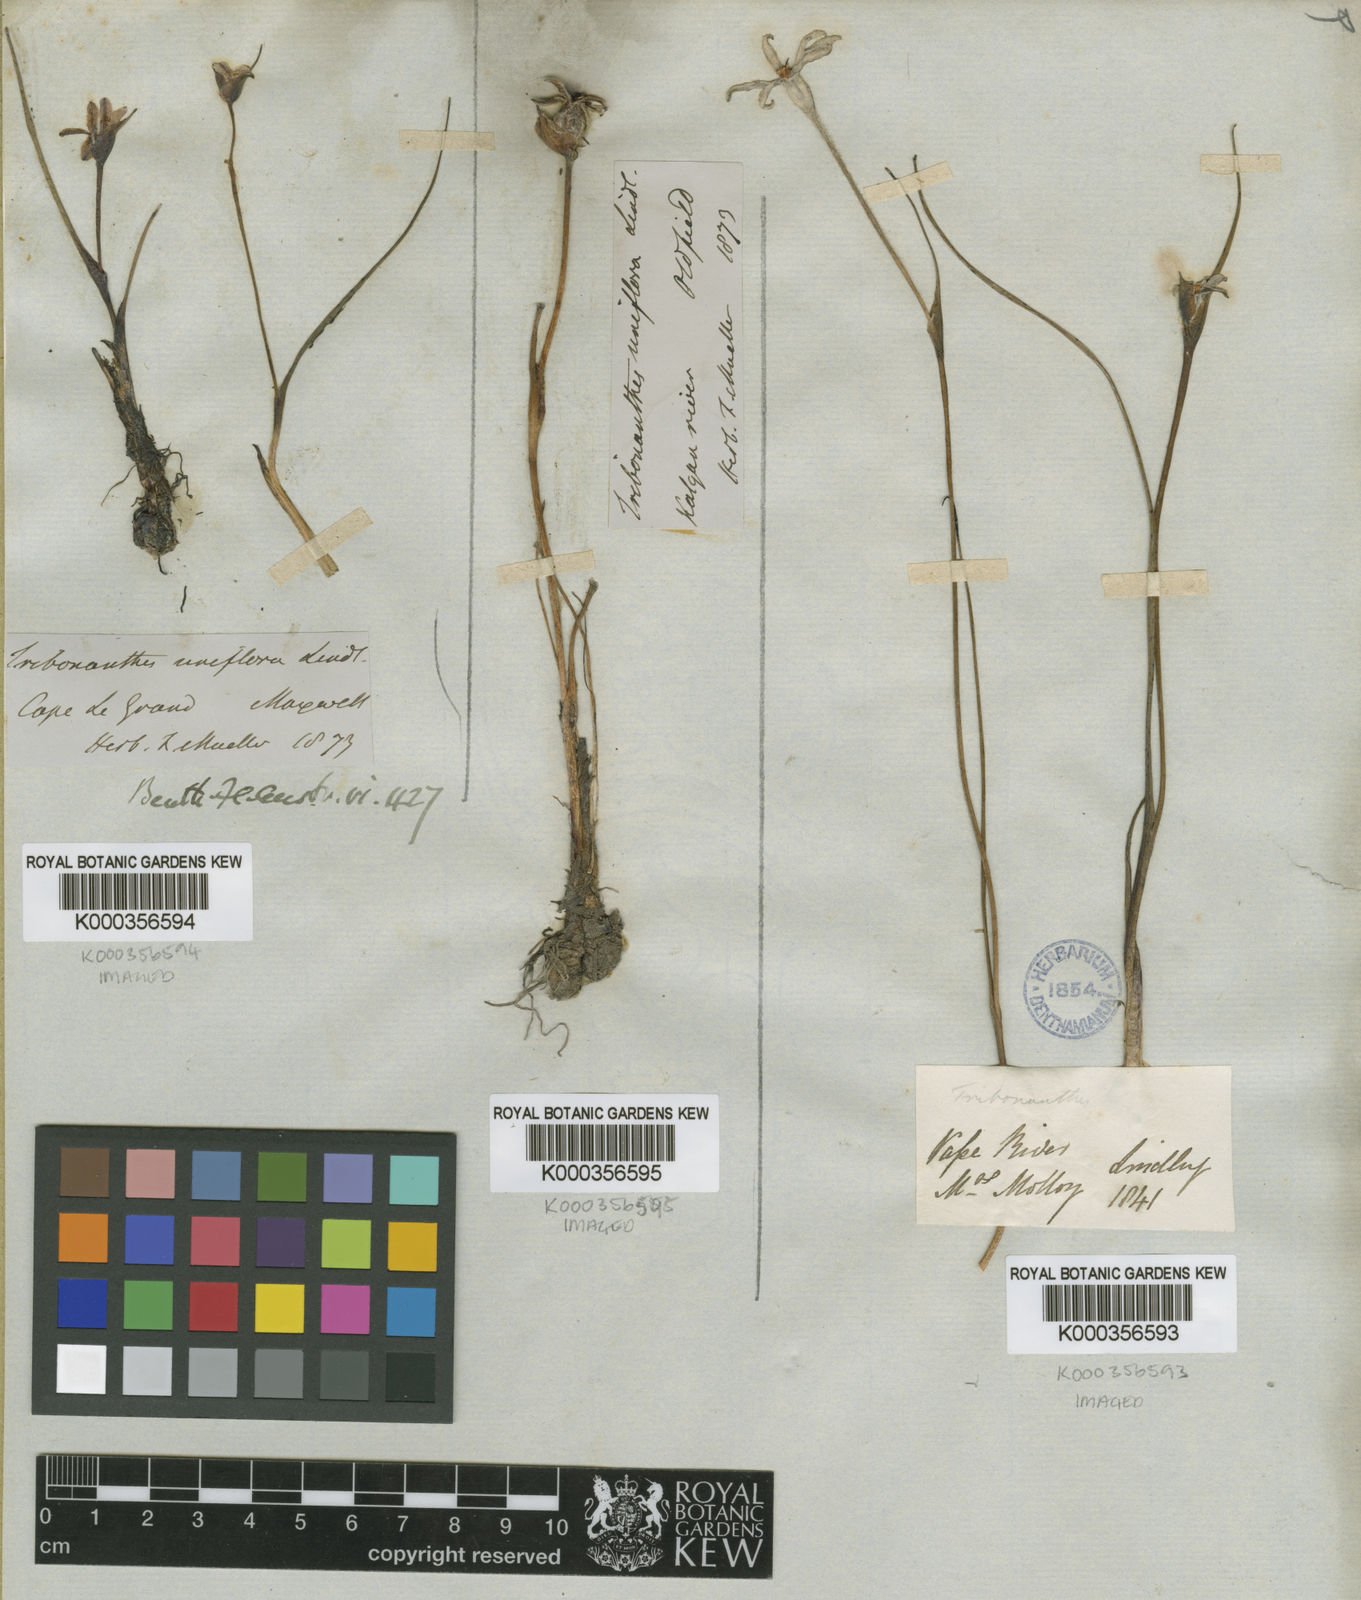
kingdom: Plantae
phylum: Tracheophyta
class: Liliopsida
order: Commelinales
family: Haemodoraceae
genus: Tribonanthes
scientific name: Tribonanthes longipetala
